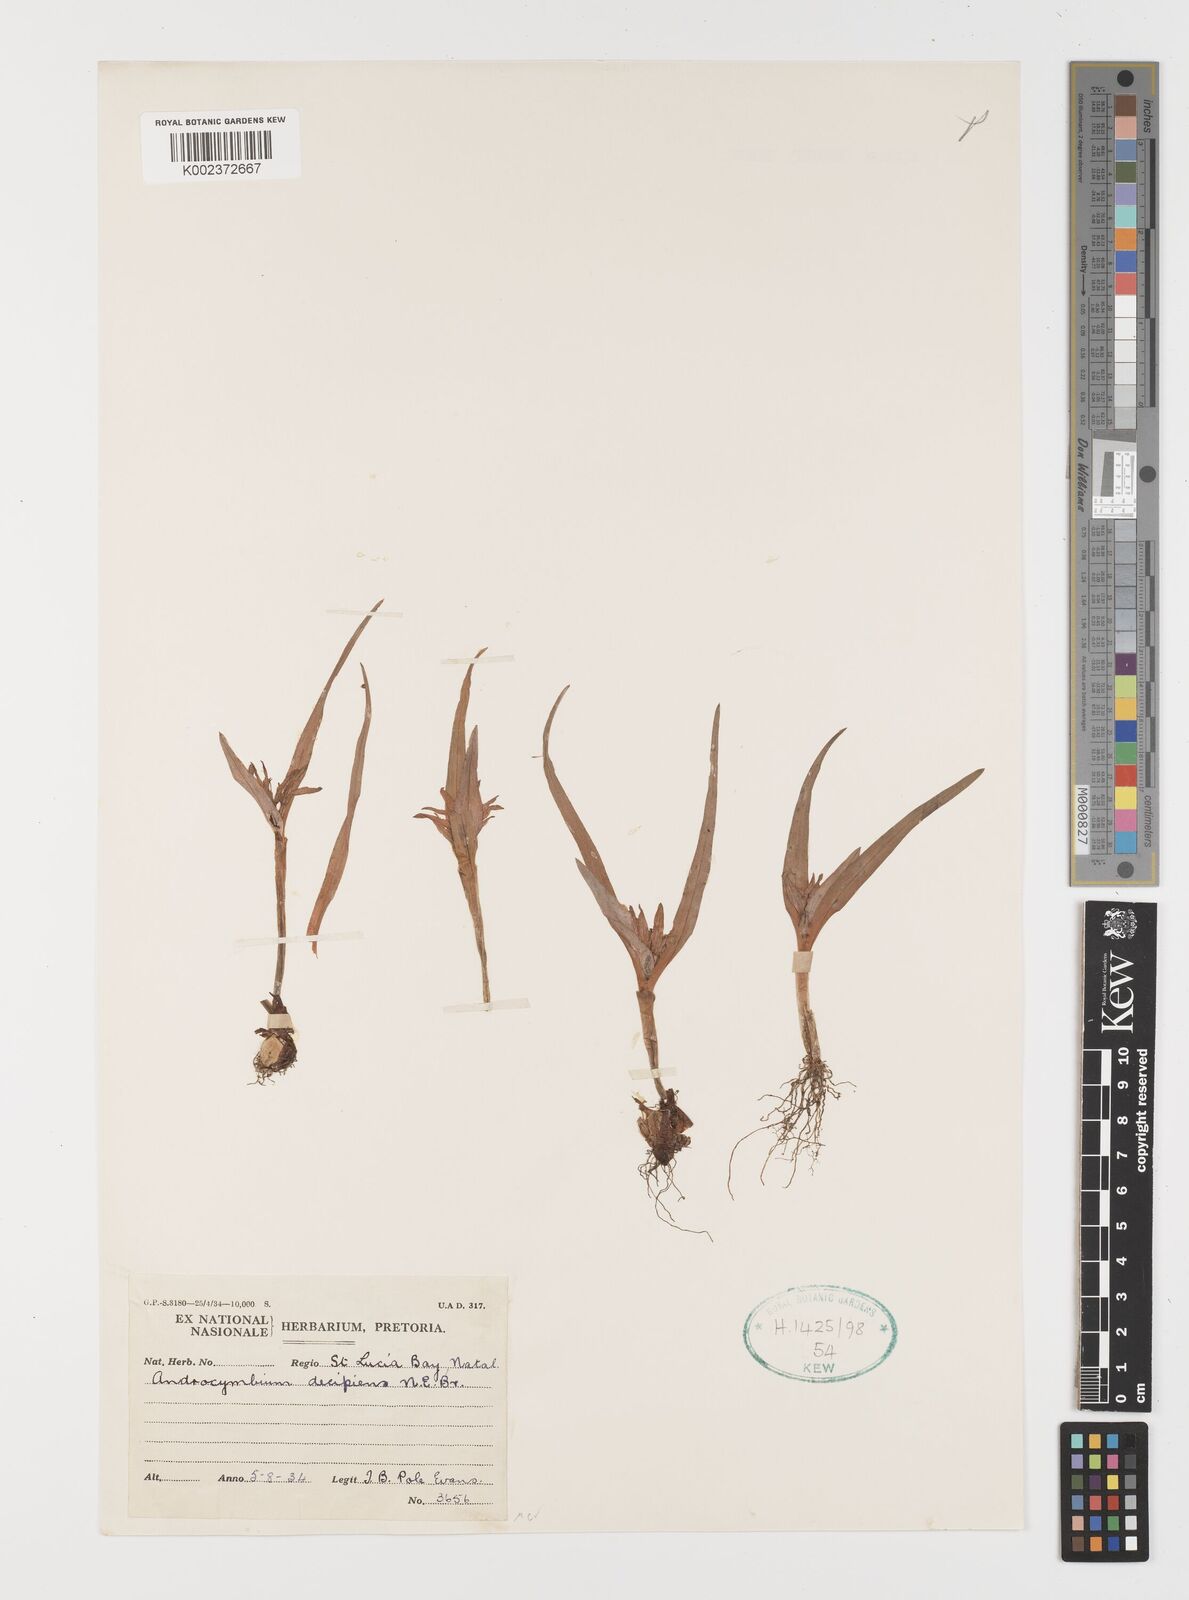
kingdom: Plantae
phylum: Tracheophyta
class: Liliopsida
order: Liliales
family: Colchicaceae
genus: Colchicum
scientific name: Colchicum decipiens
